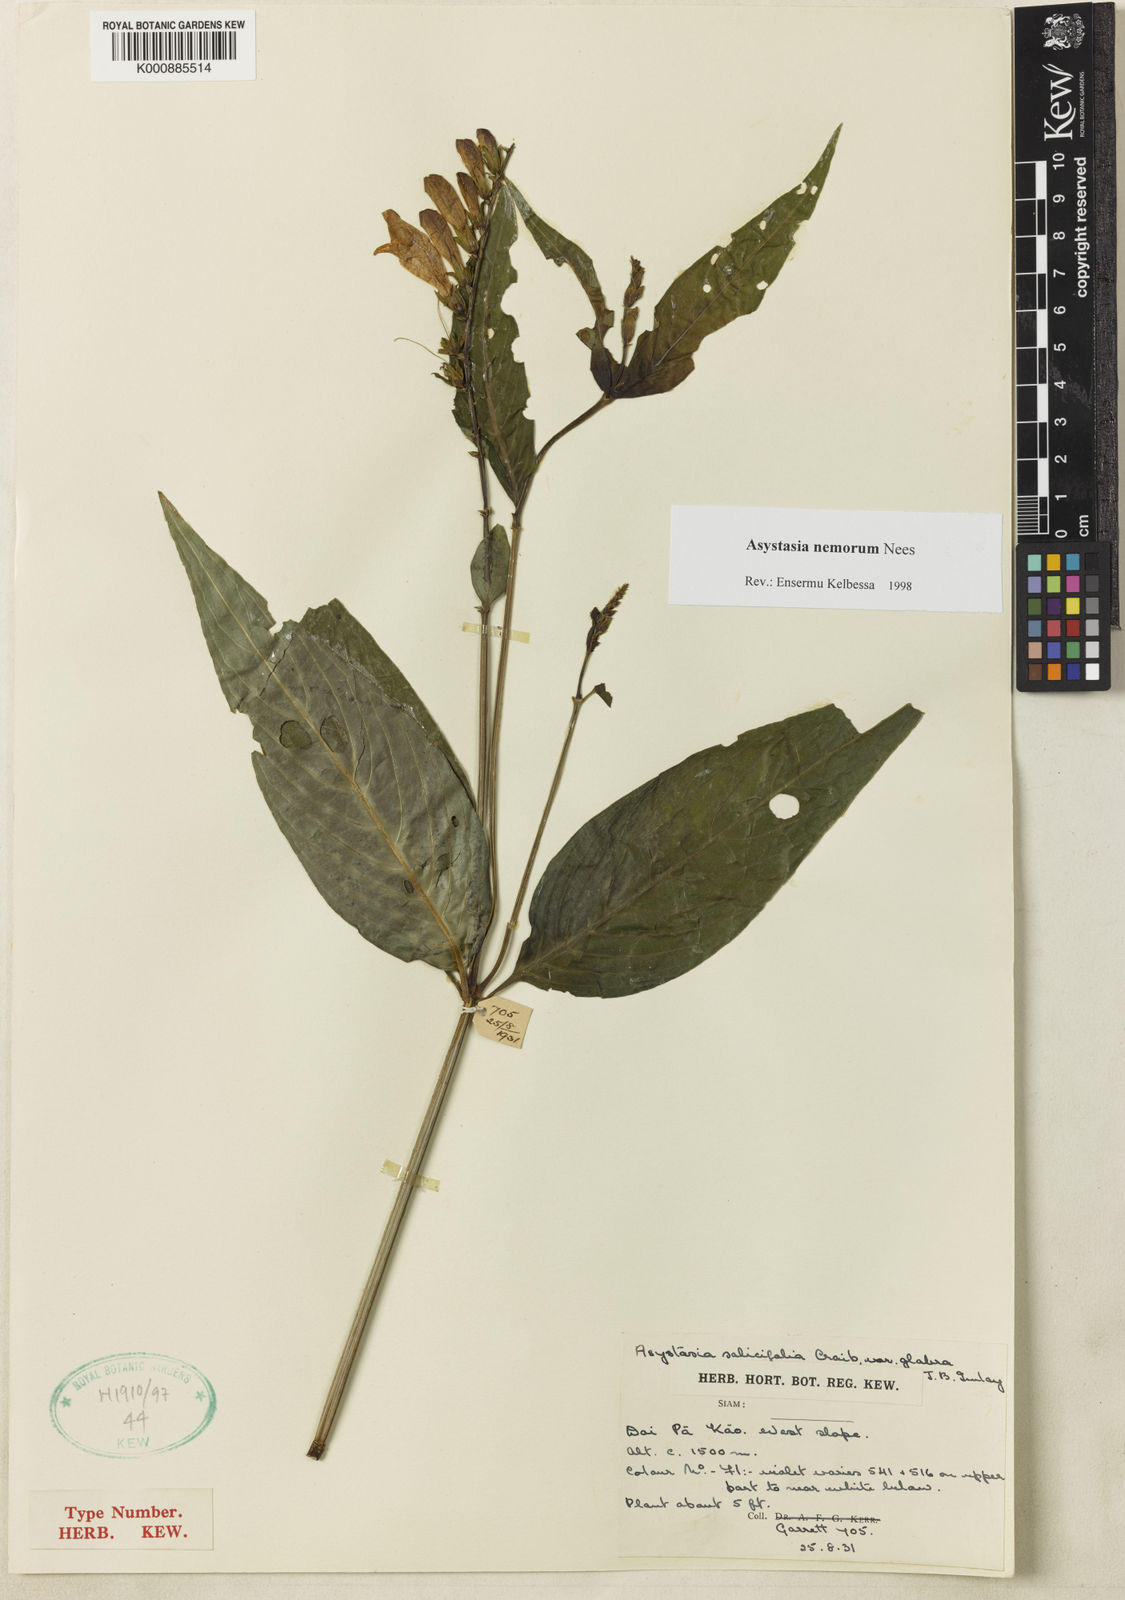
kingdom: Plantae
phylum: Tracheophyta
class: Magnoliopsida
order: Lamiales
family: Acanthaceae
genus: Asystasia
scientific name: Asystasia nemorum
